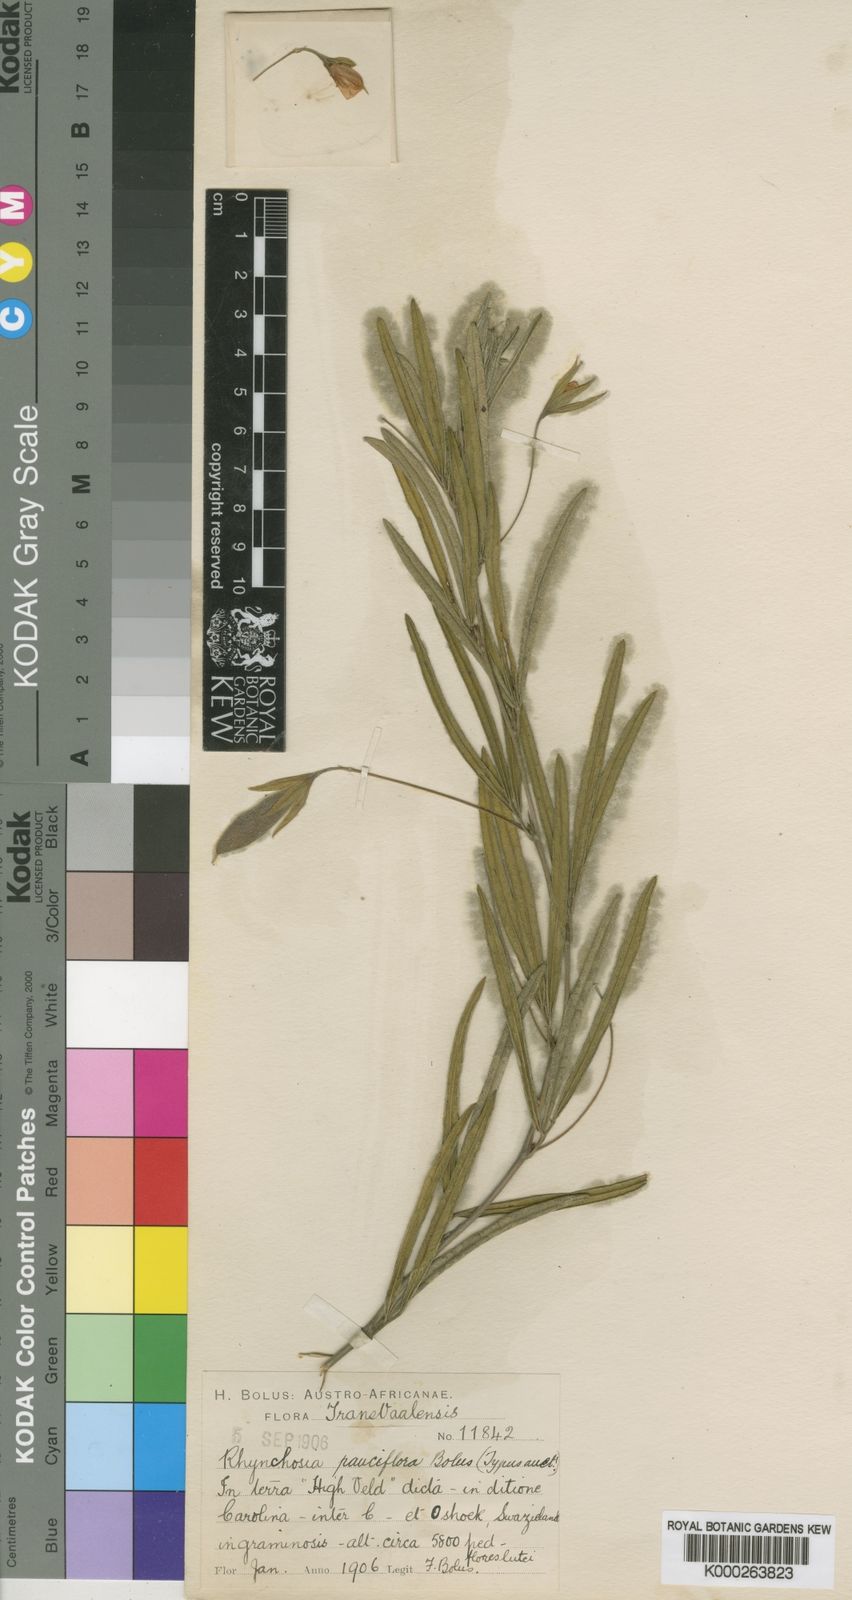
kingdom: Plantae
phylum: Tracheophyta
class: Magnoliopsida
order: Fabales
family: Fabaceae
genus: Rhynchosia
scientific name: Rhynchosia pauciflora
